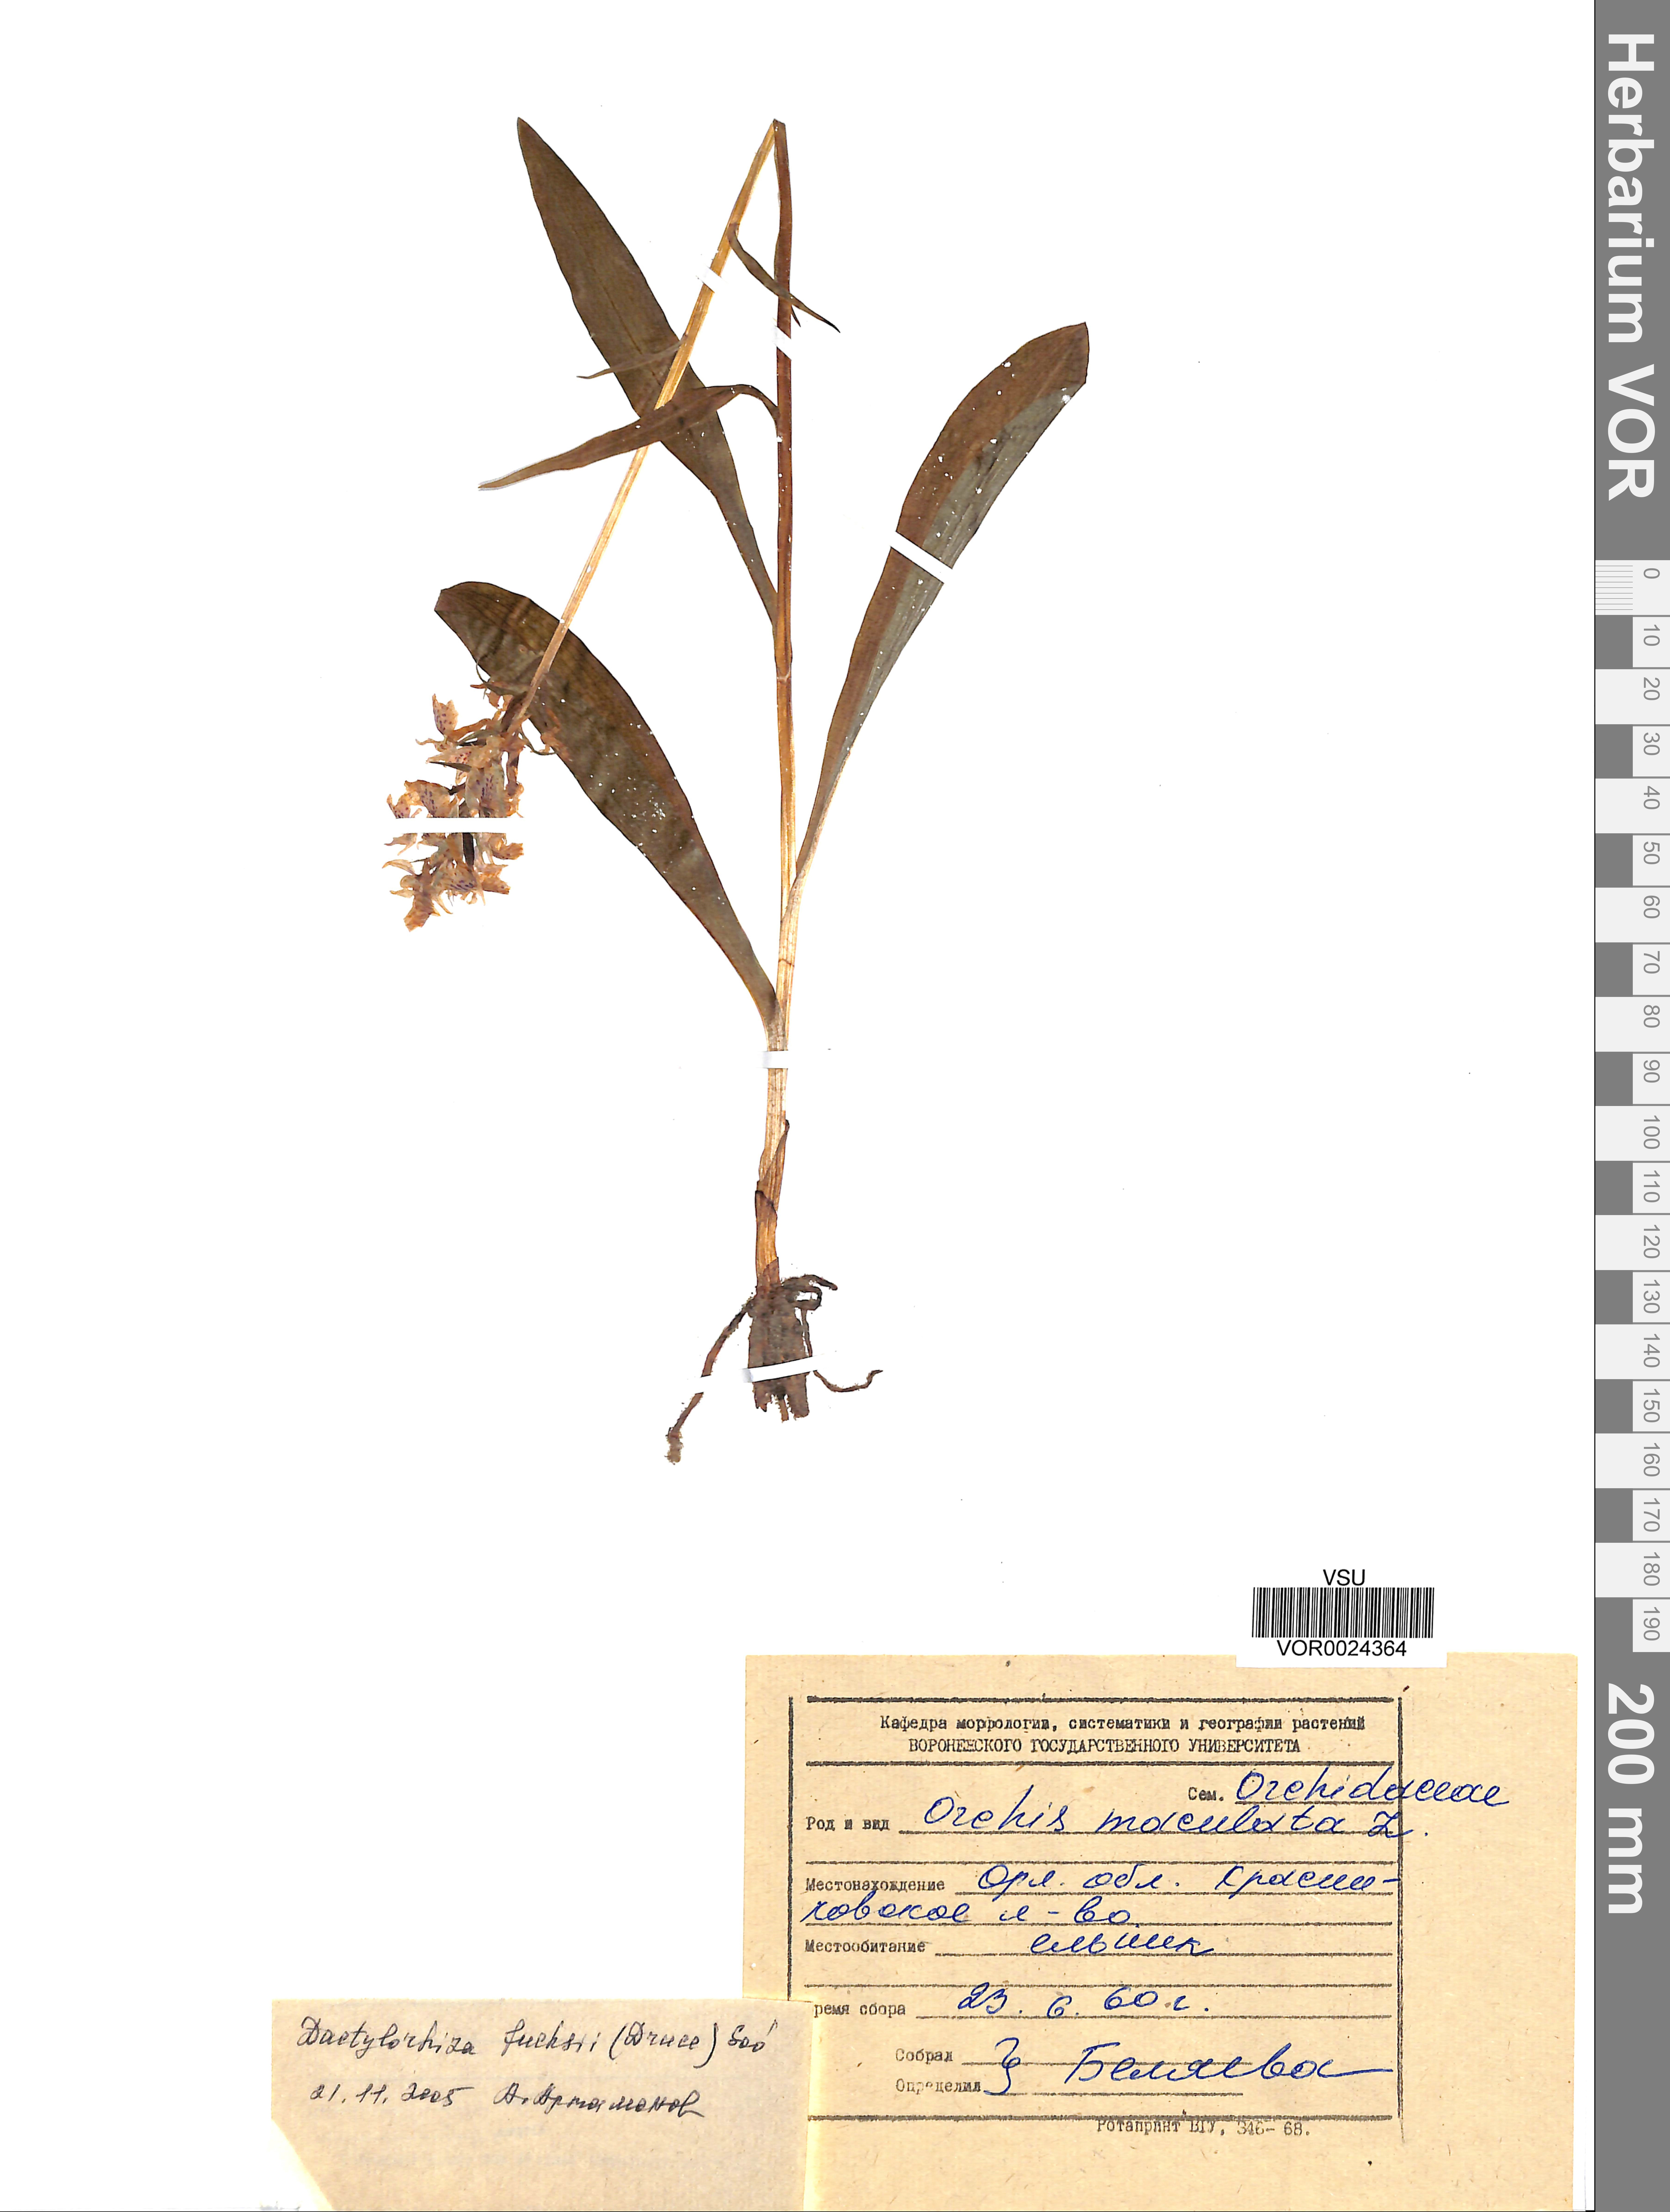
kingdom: Plantae
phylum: Tracheophyta
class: Liliopsida
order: Asparagales
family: Orchidaceae
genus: Dactylorhiza
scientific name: Dactylorhiza maculata
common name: Heath spotted-orchid
